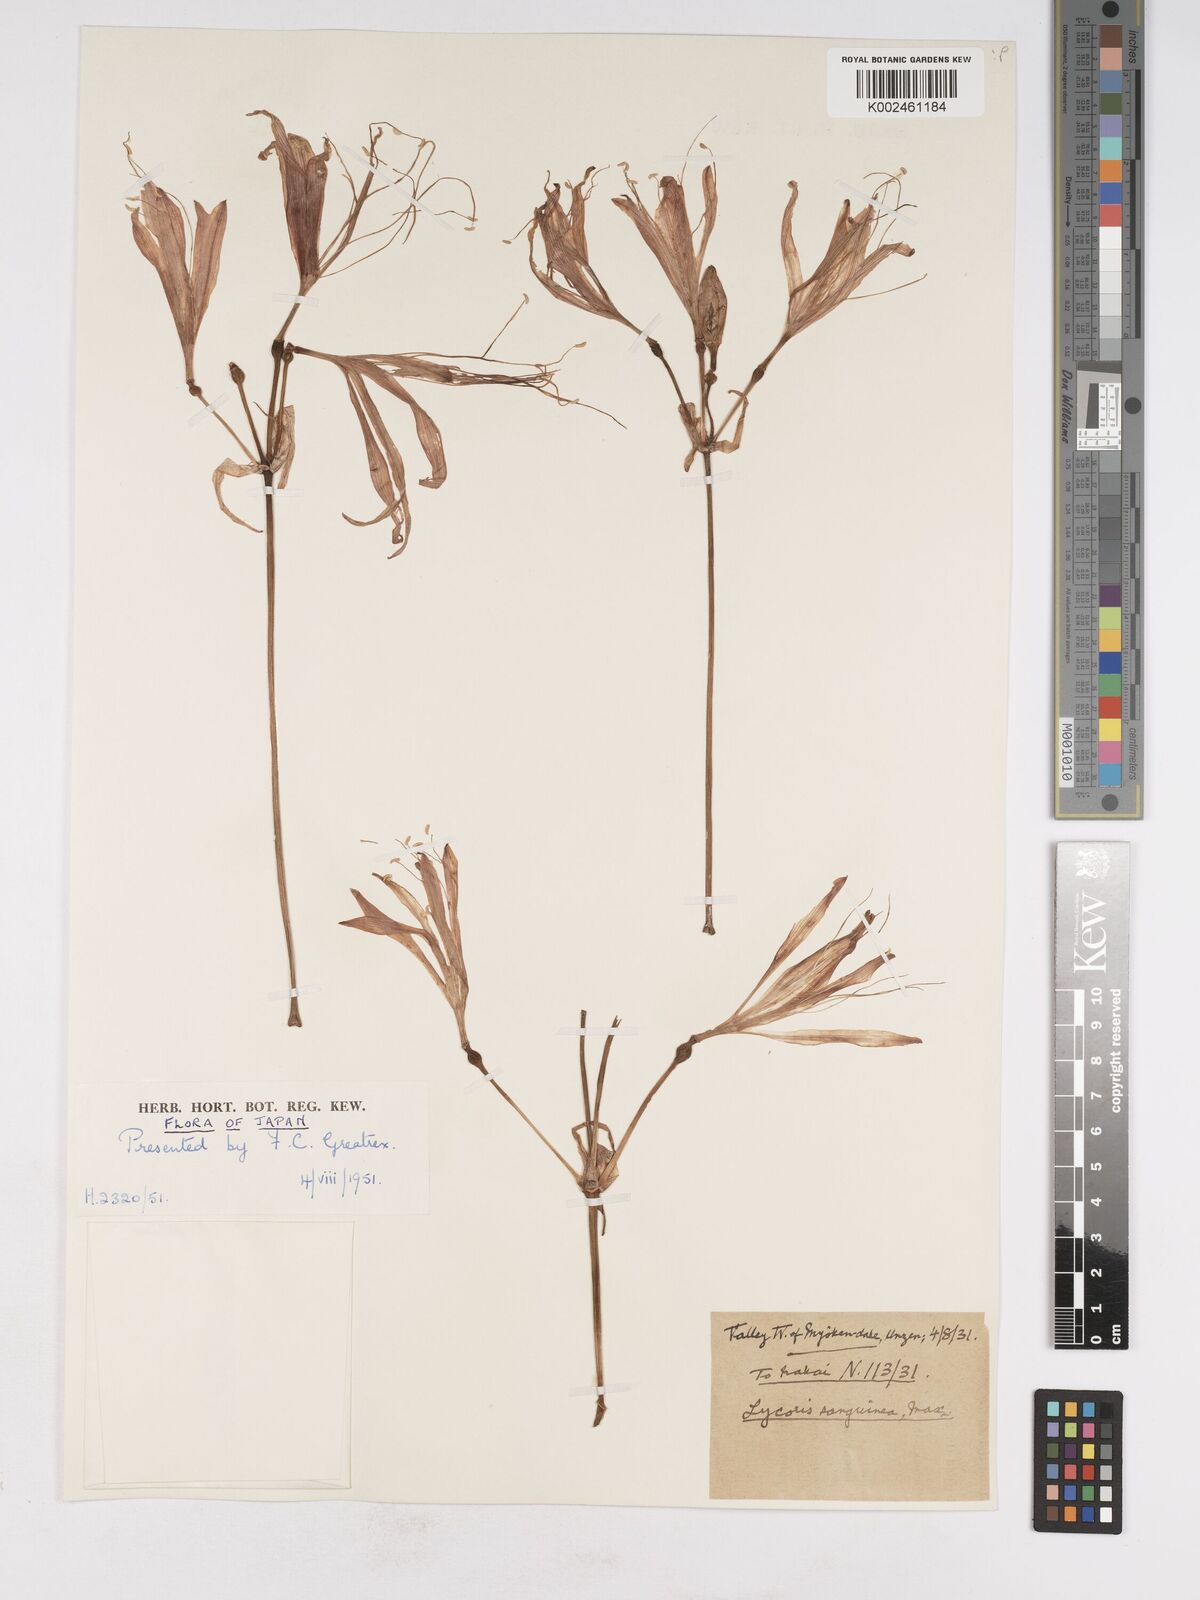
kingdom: Plantae
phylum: Tracheophyta
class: Liliopsida
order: Asparagales
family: Amaryllidaceae
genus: Lycoris
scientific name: Lycoris sanguinea
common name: Spider-lily
